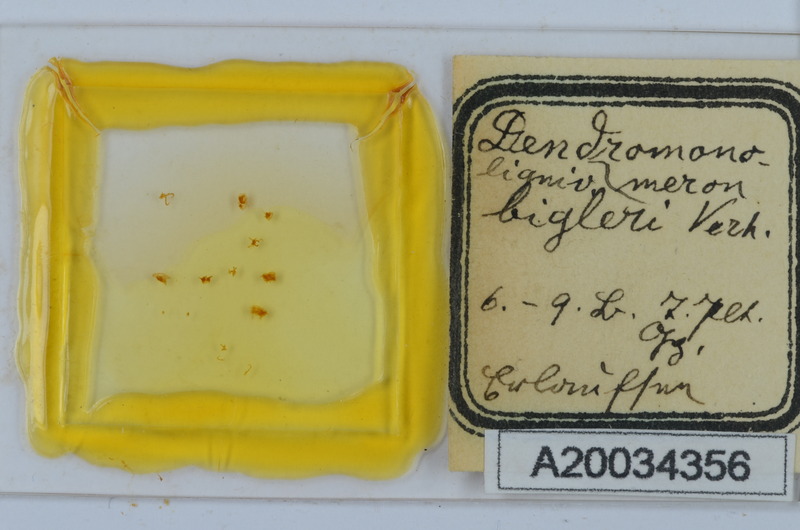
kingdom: Animalia
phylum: Arthropoda
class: Diplopoda
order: Chordeumatida
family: Attemsiidae
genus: Dendromonomeron
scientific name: Dendromonomeron lignivagum
